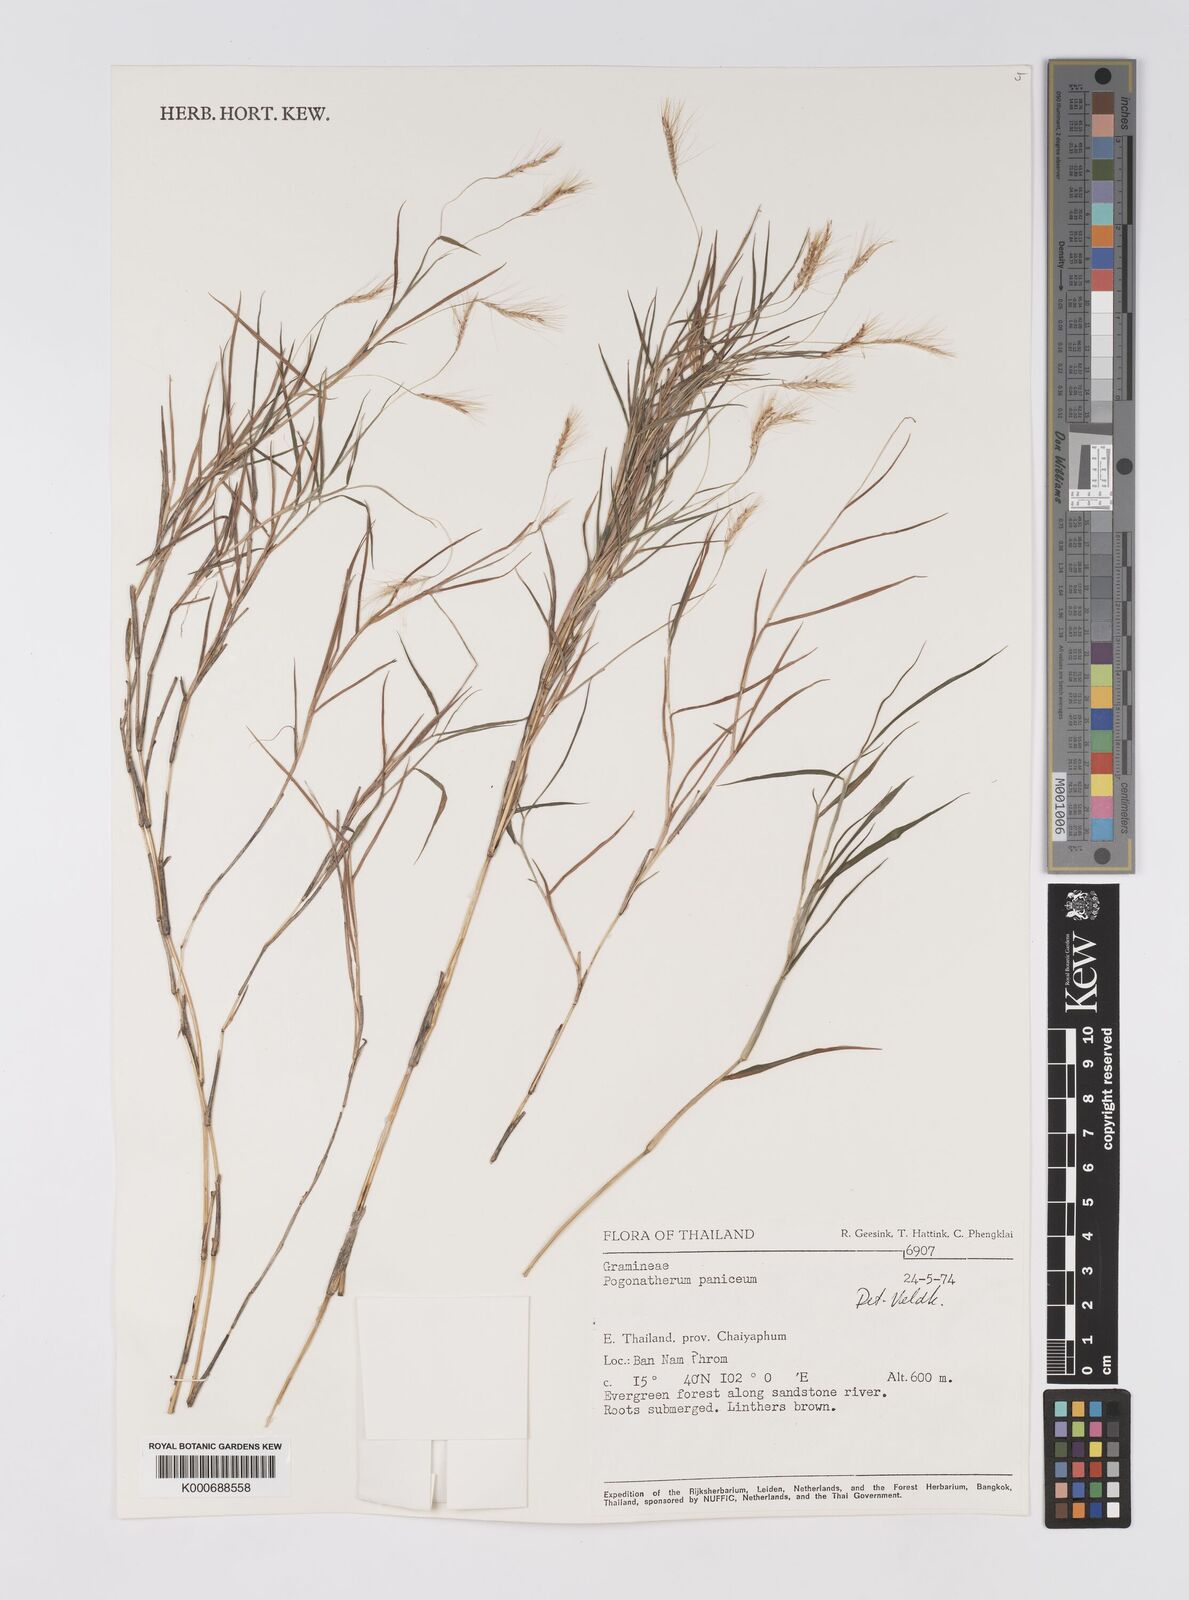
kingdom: Plantae
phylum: Tracheophyta
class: Liliopsida
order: Poales
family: Poaceae
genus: Pogonatherum
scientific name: Pogonatherum paniceum
